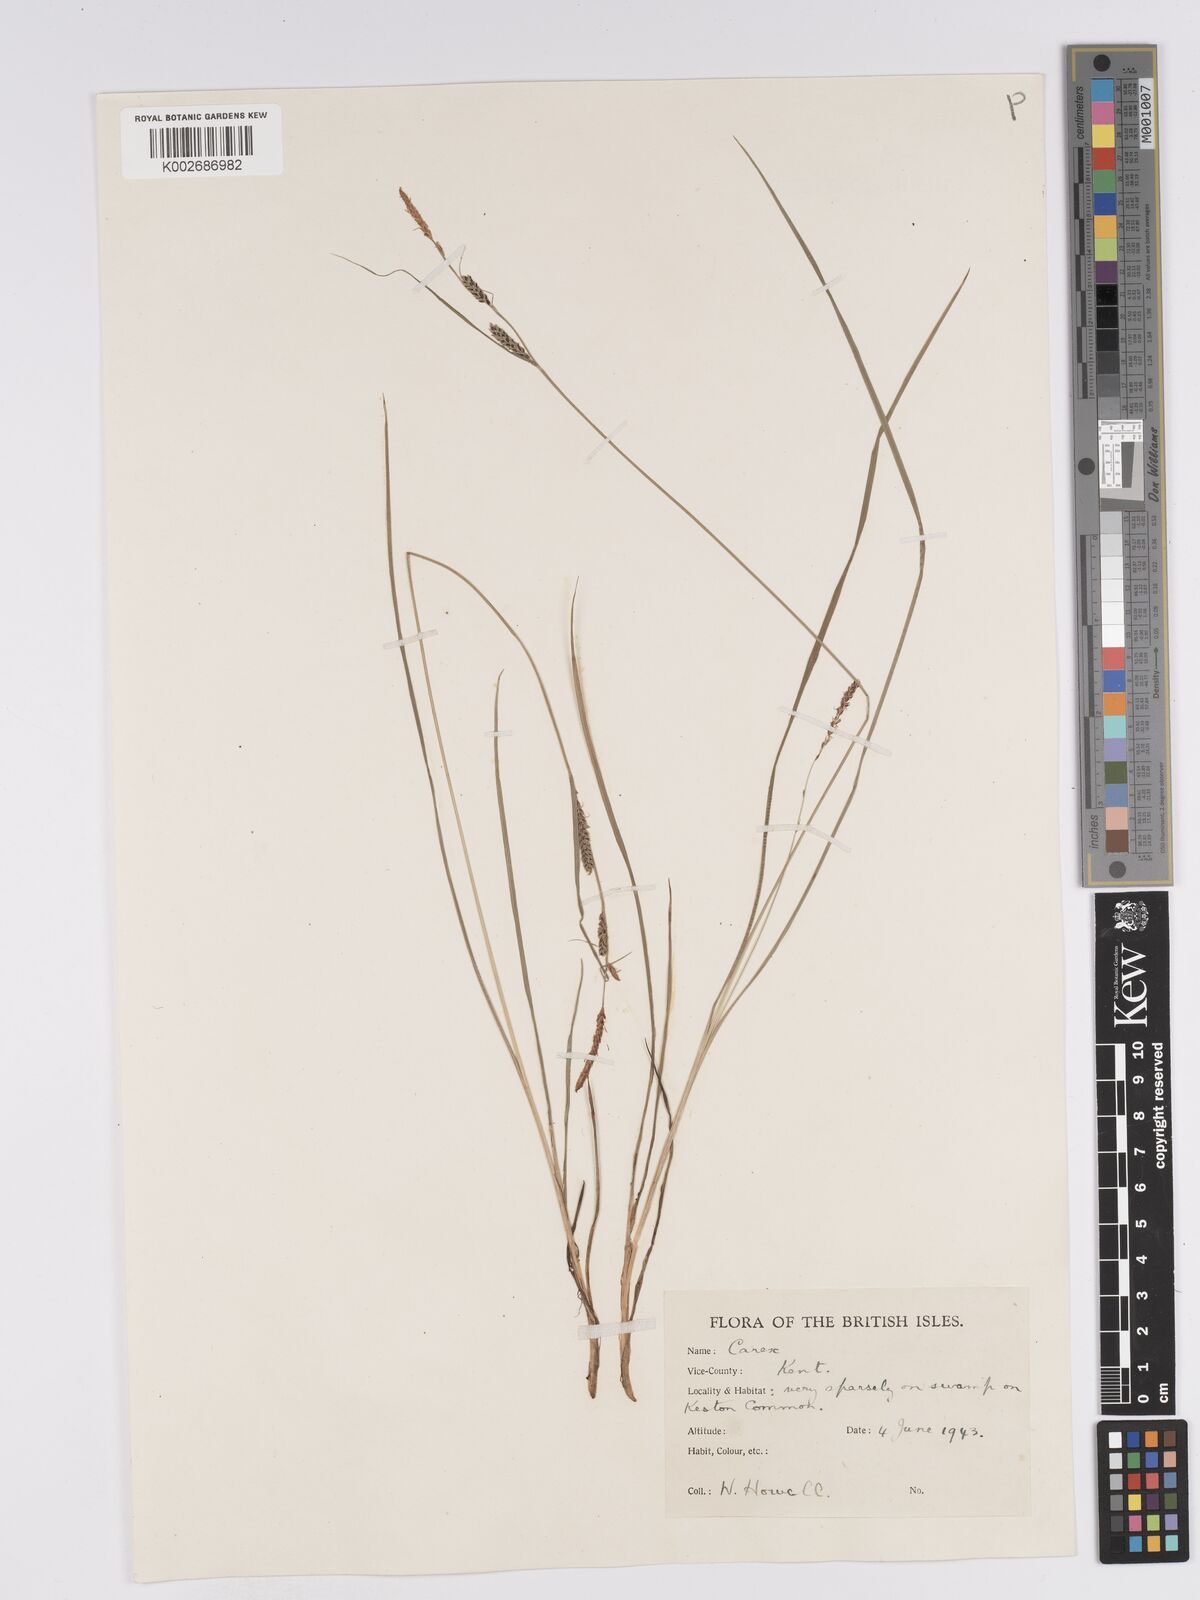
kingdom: Plantae
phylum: Tracheophyta
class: Liliopsida
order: Poales
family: Cyperaceae
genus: Carex
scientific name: Carex nigra
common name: Common sedge
